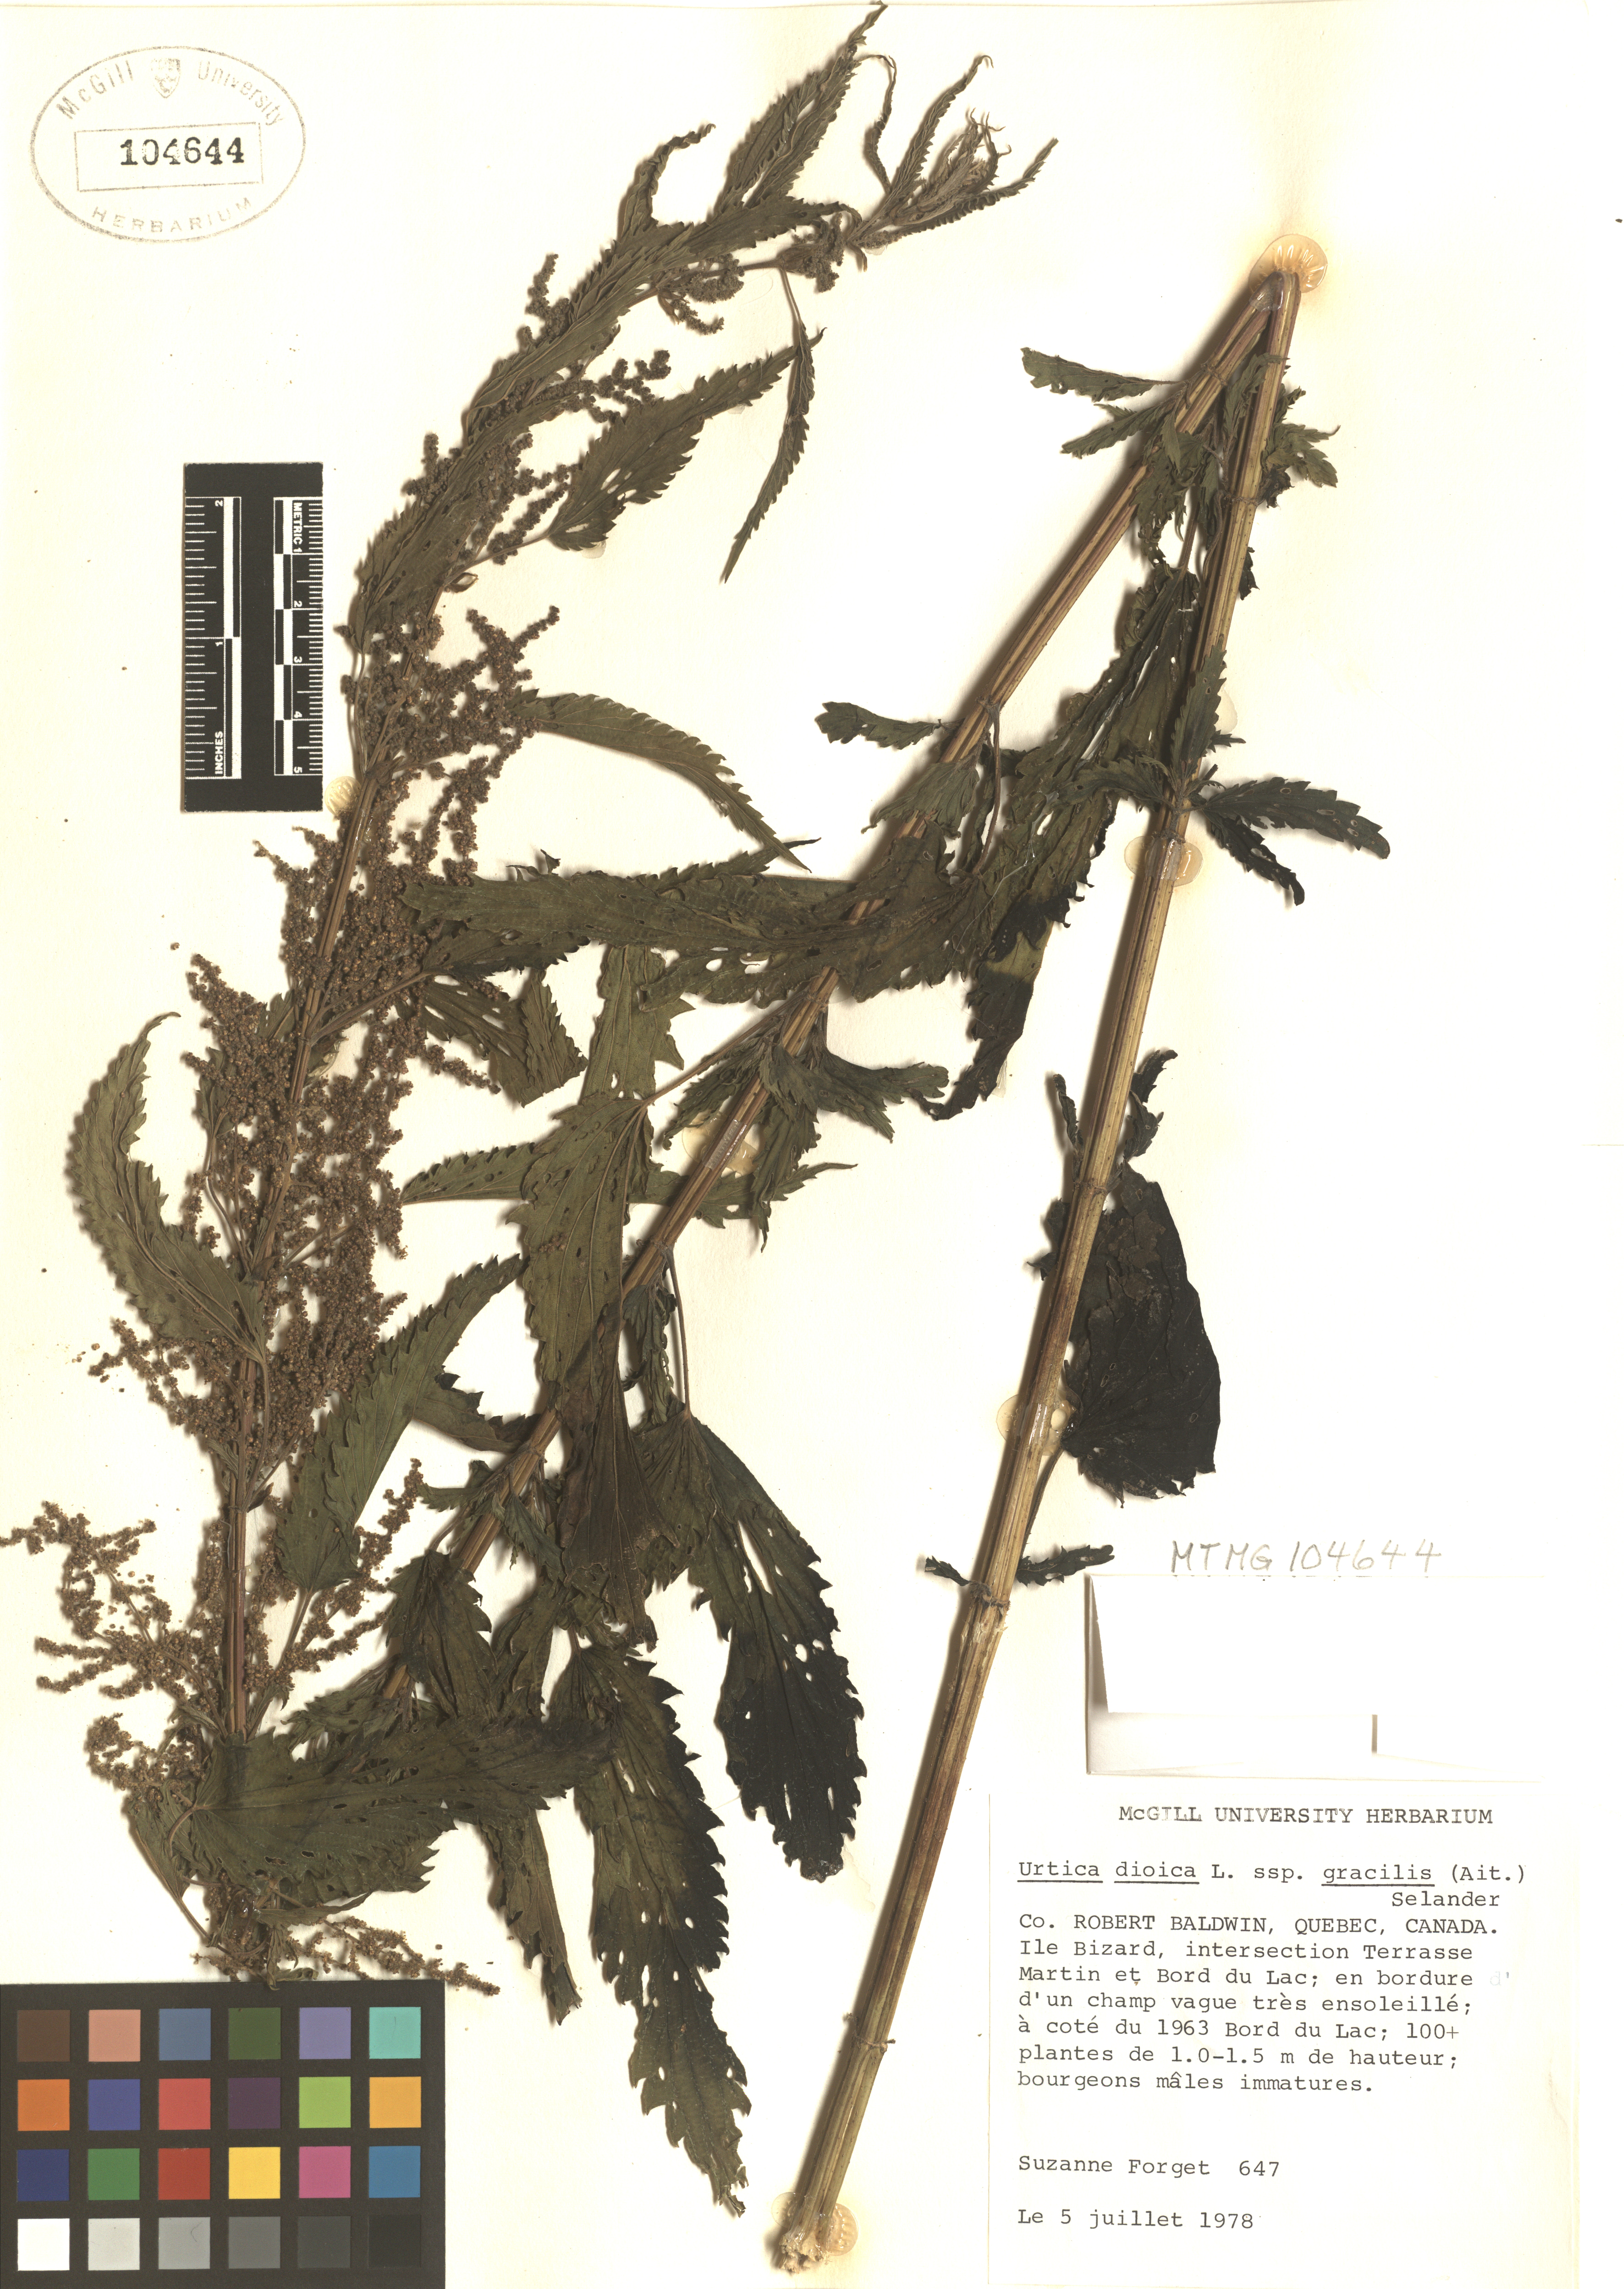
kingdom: Plantae
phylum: Tracheophyta
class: Magnoliopsida
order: Rosales
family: Urticaceae
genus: Urtica
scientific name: Urtica gracilis
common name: Slender stinging nettle
